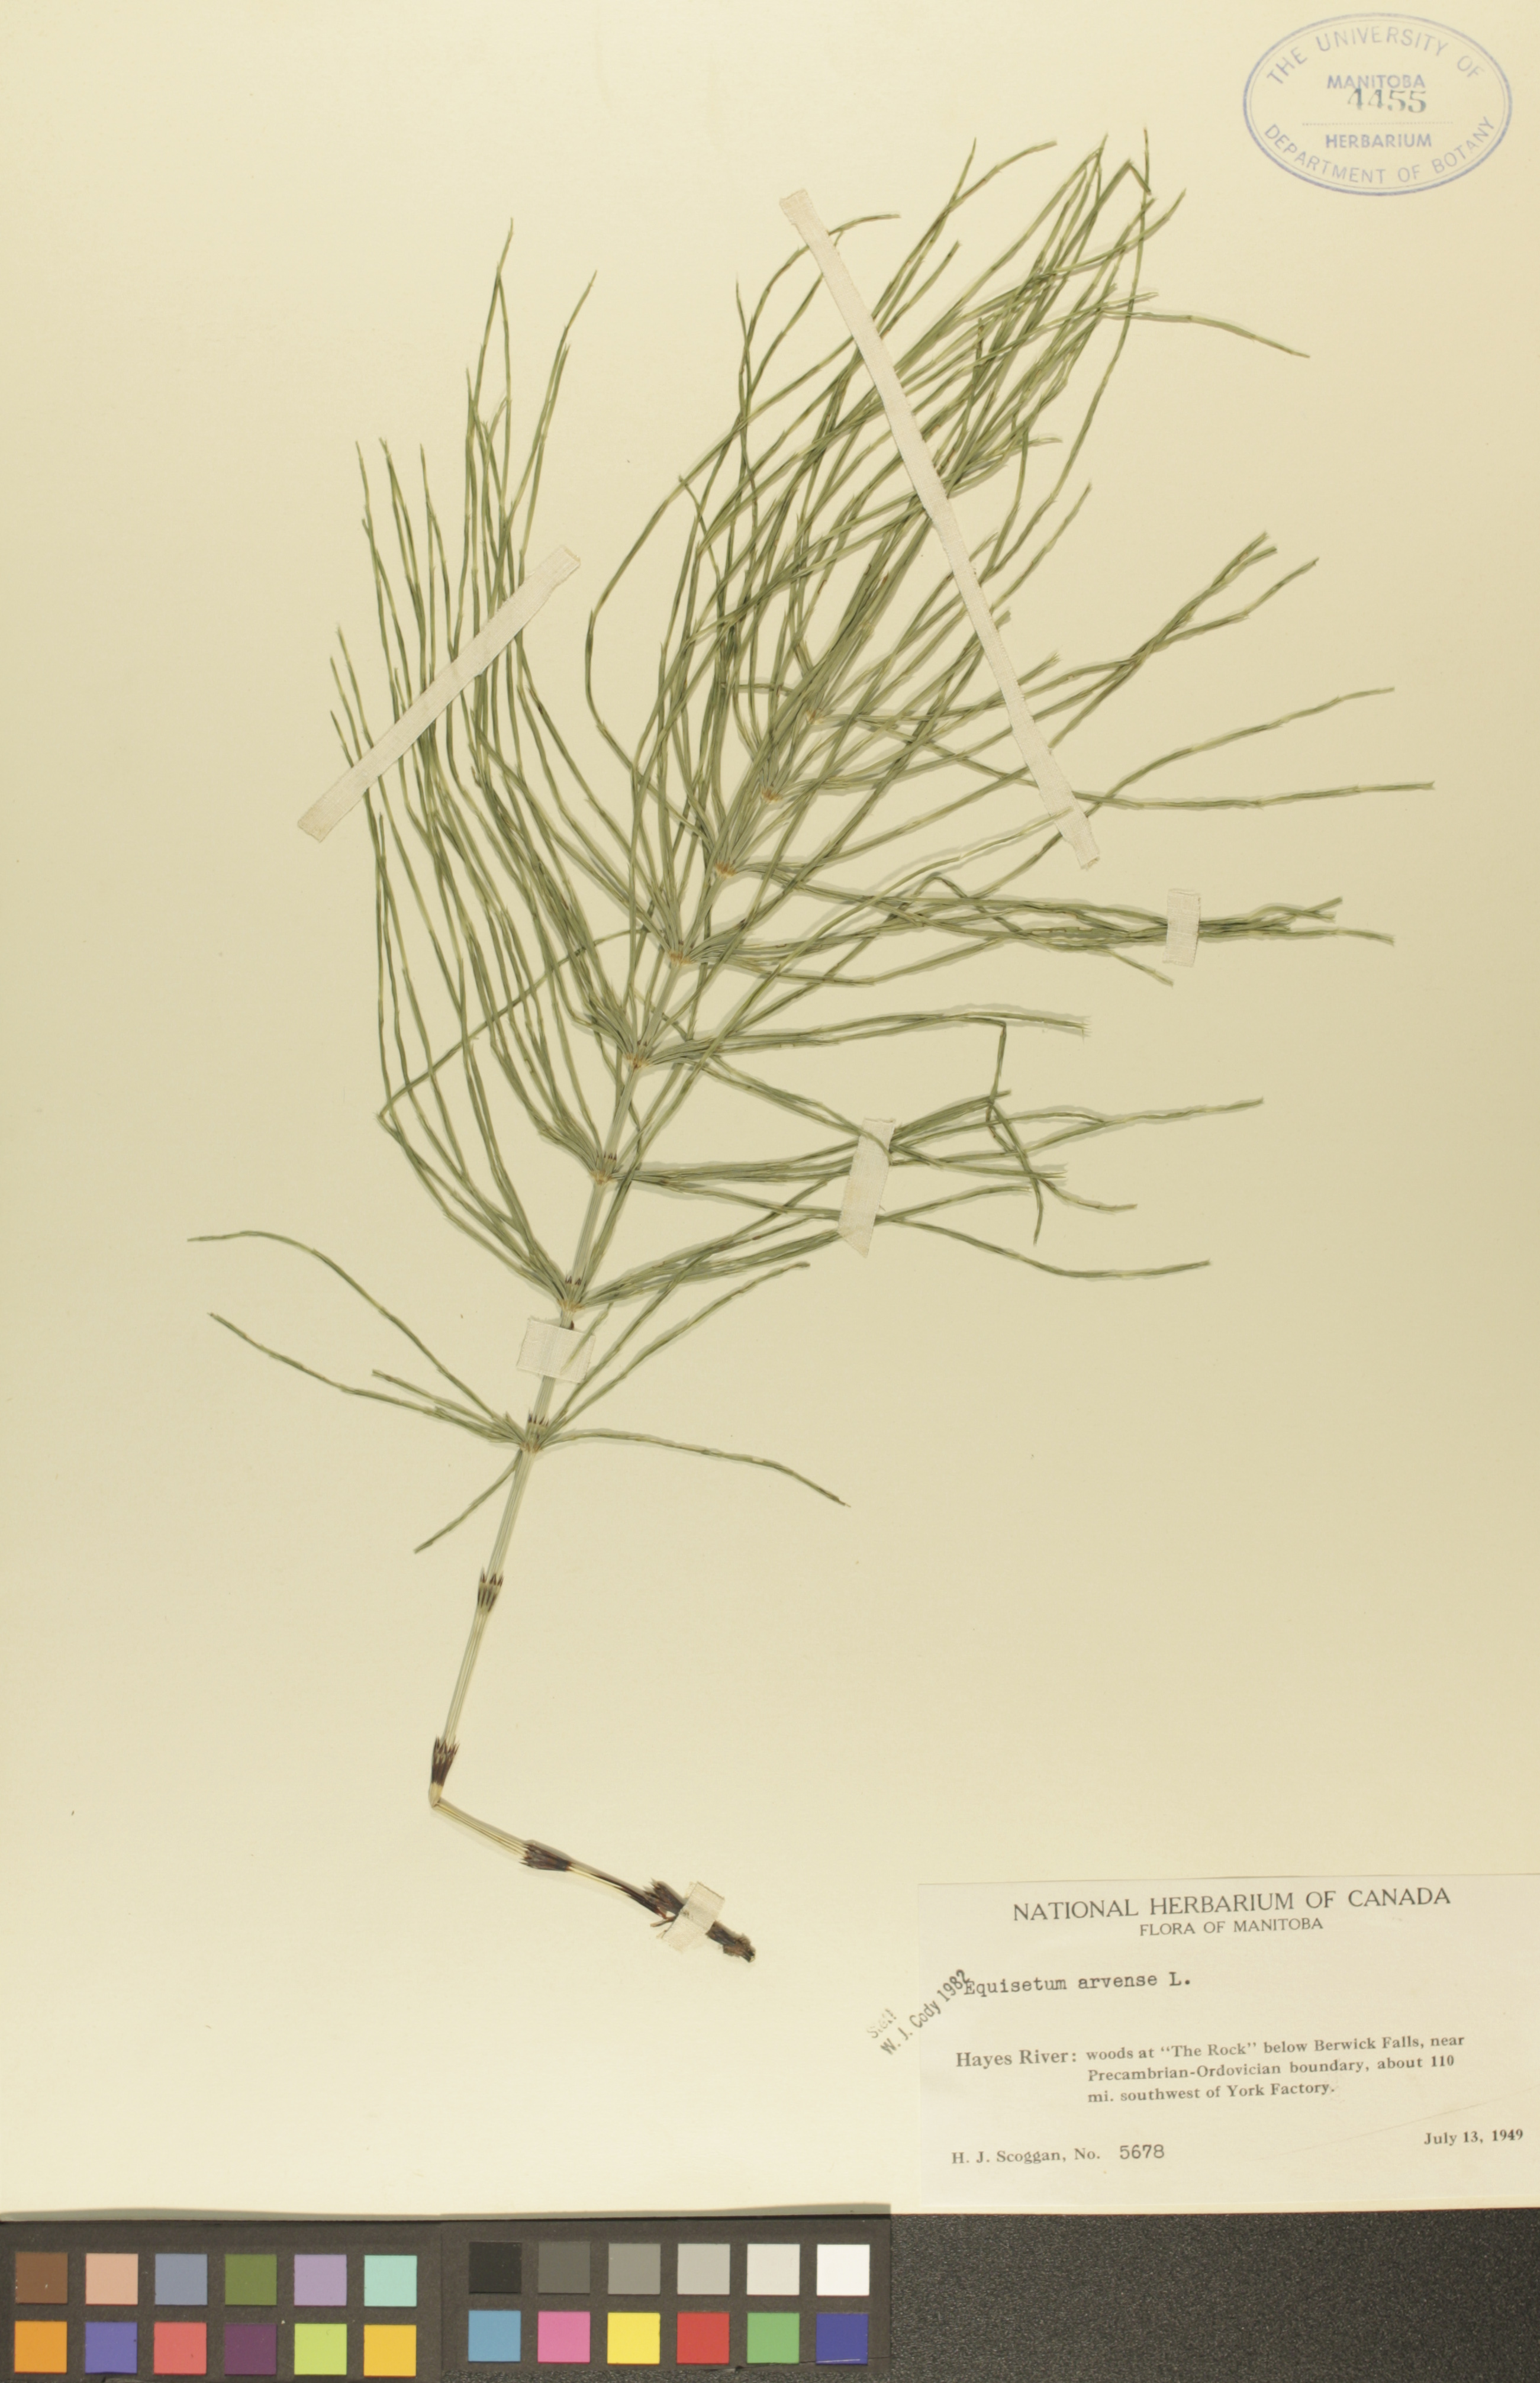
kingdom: Plantae
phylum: Tracheophyta
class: Polypodiopsida
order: Equisetales
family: Equisetaceae
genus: Equisetum
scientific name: Equisetum arvense
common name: Field horsetail
